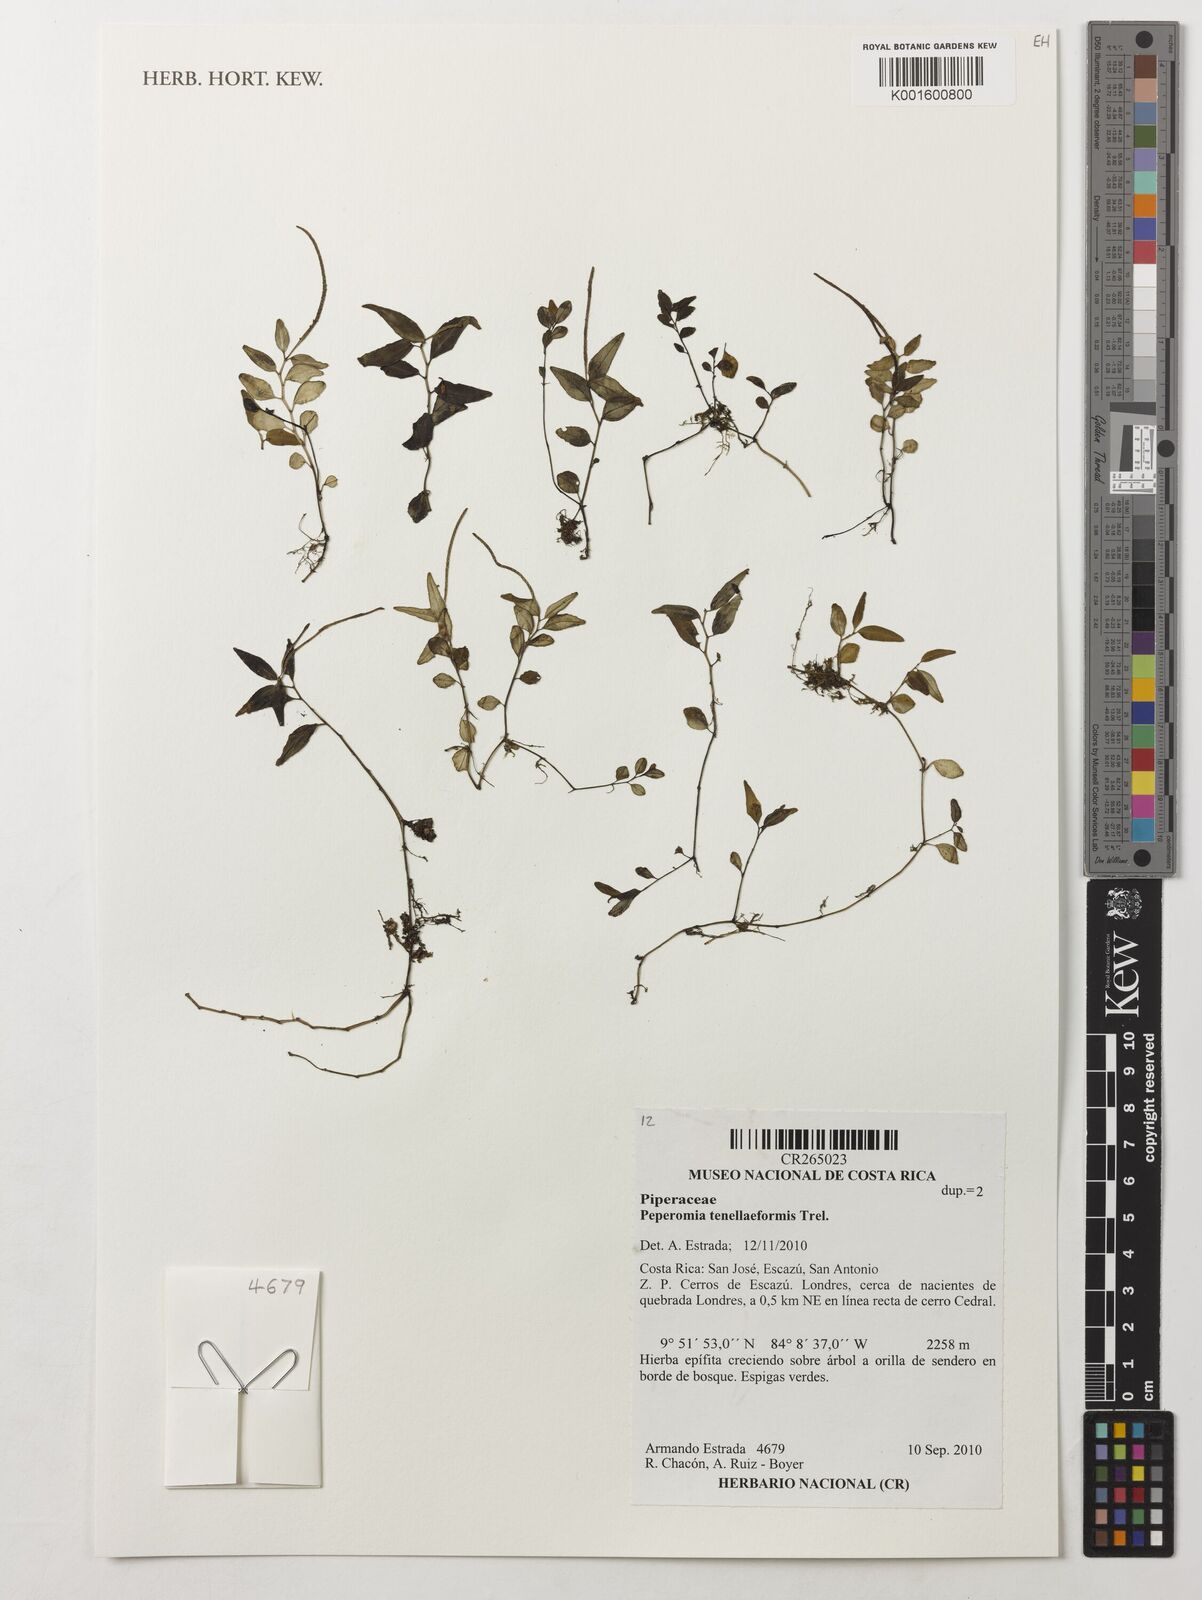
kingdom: Plantae
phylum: Tracheophyta
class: Magnoliopsida
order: Piperales
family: Piperaceae
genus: Peperomia
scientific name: Peperomia
